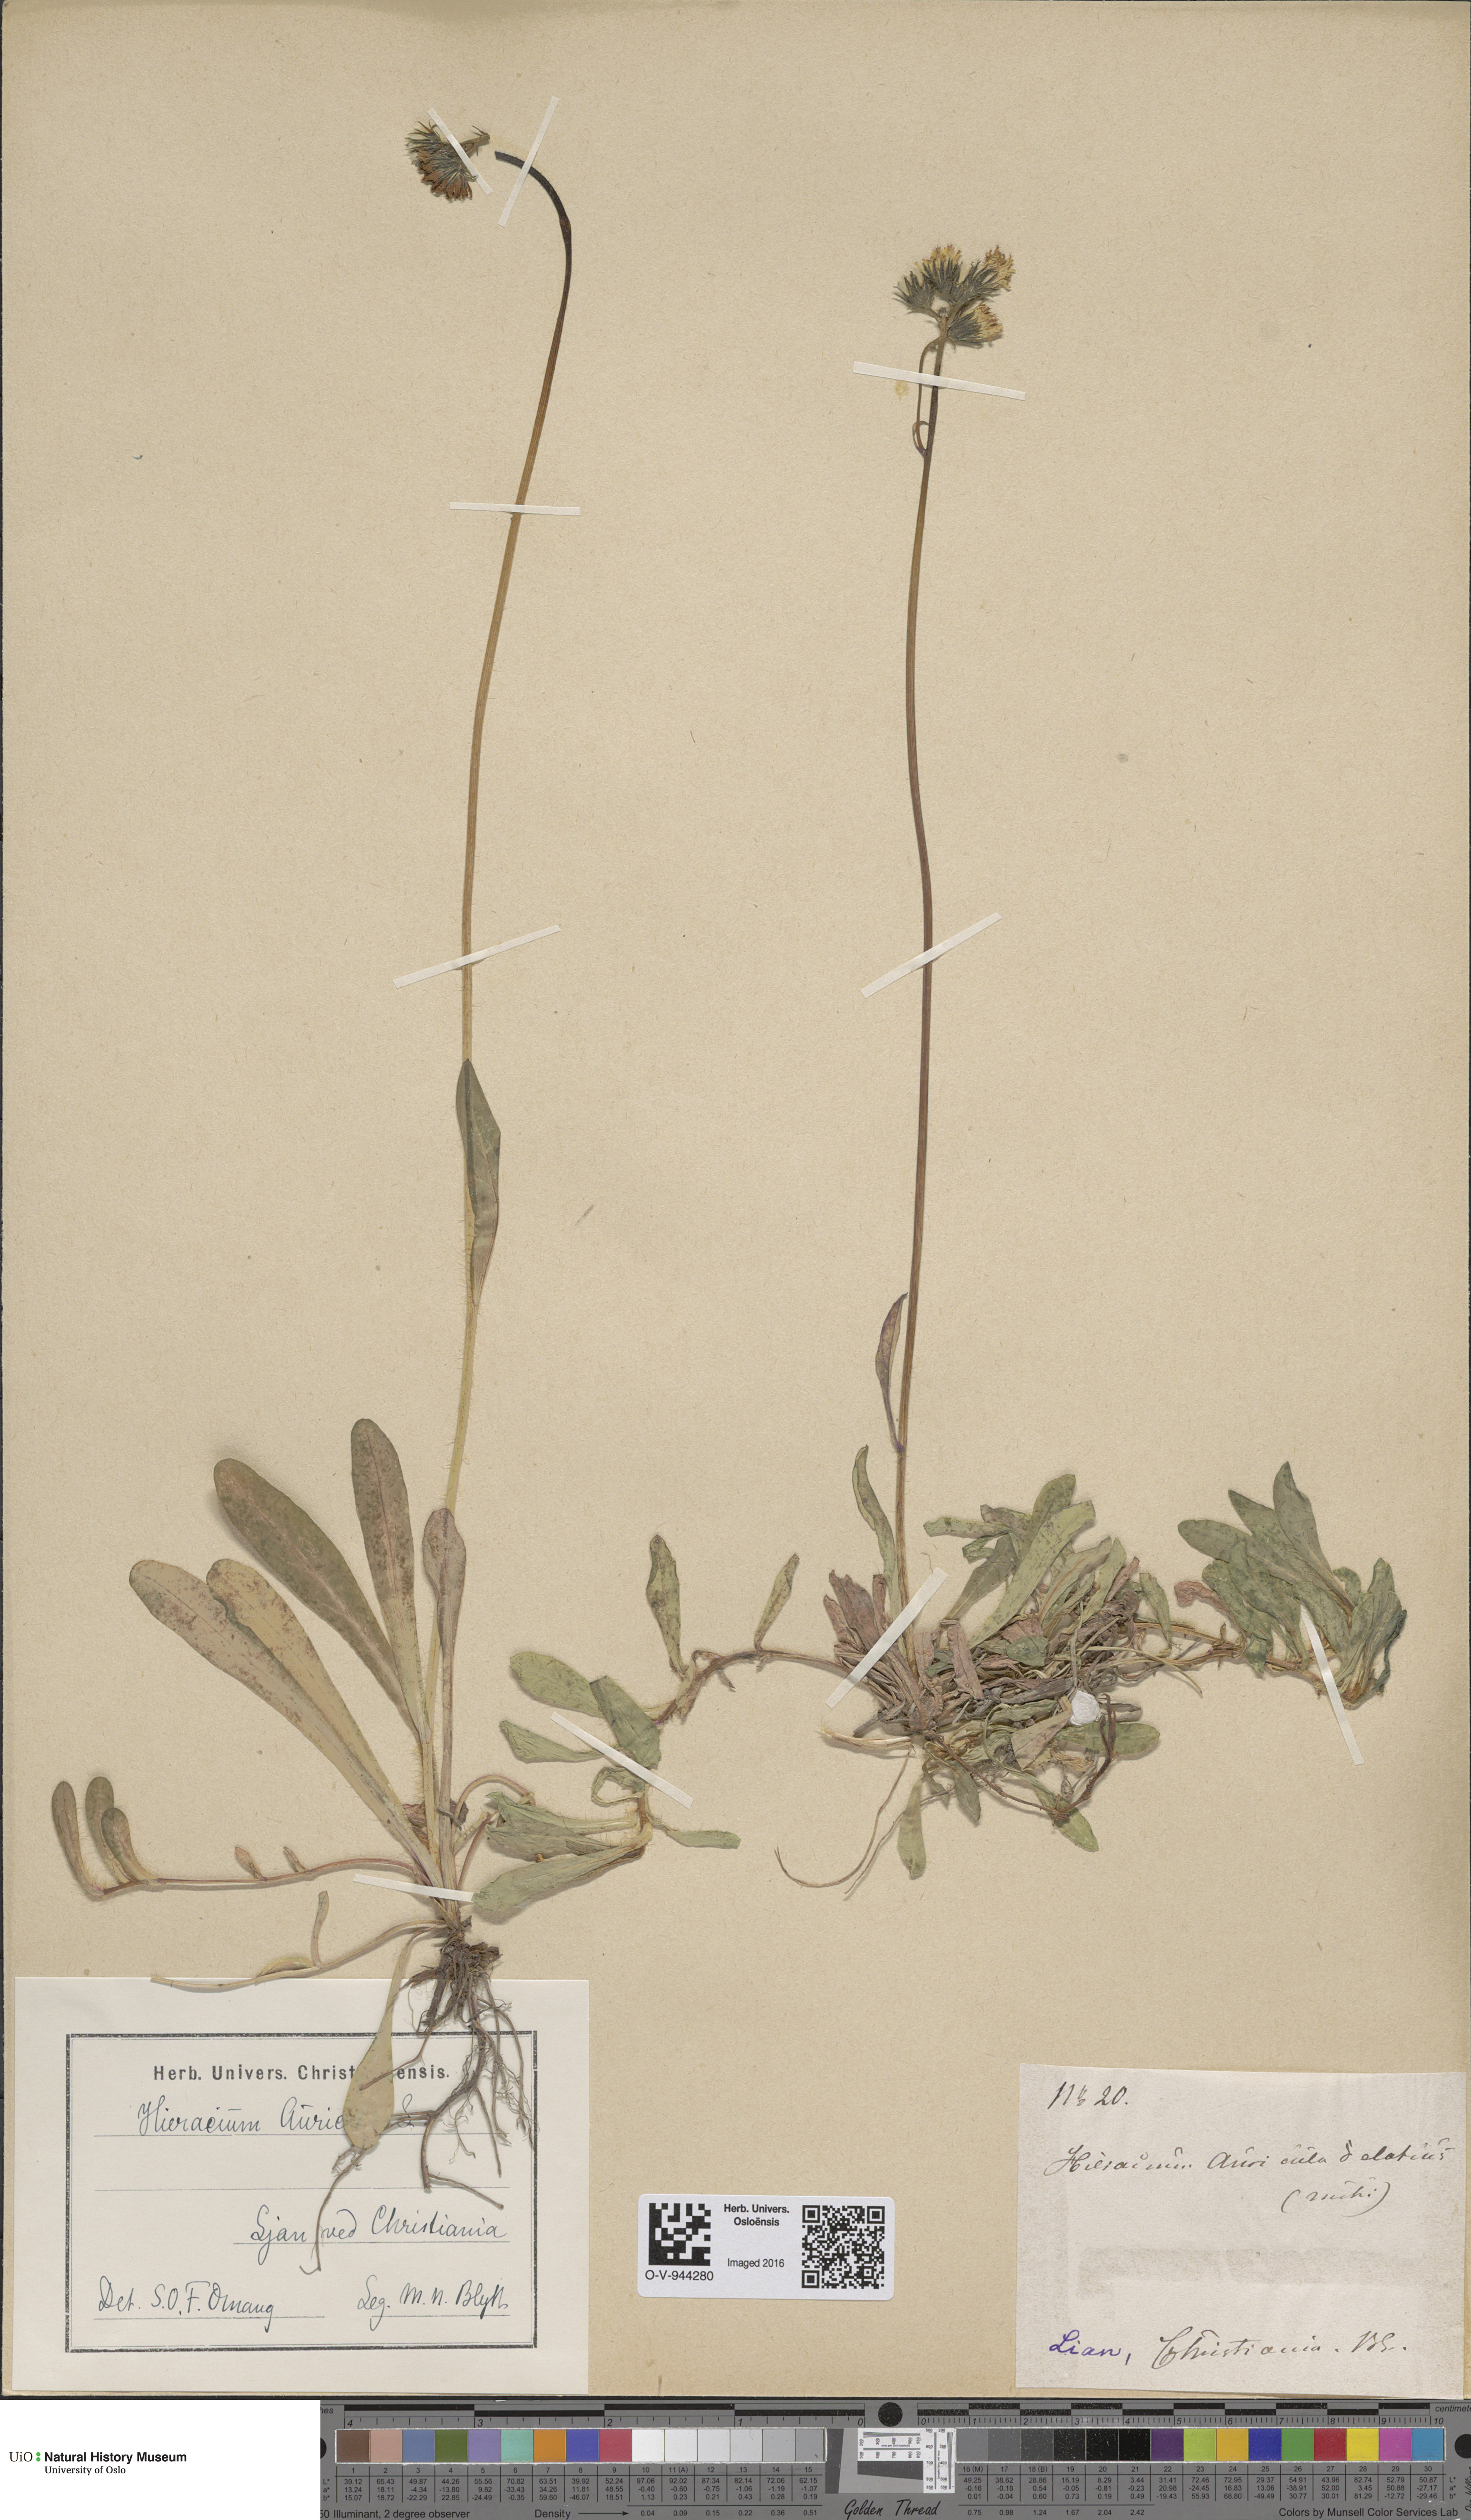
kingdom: Plantae
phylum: Tracheophyta
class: Magnoliopsida
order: Asterales
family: Asteraceae
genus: Pilosella
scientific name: Pilosella lactucella
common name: Glaucous fox-and-cubs
